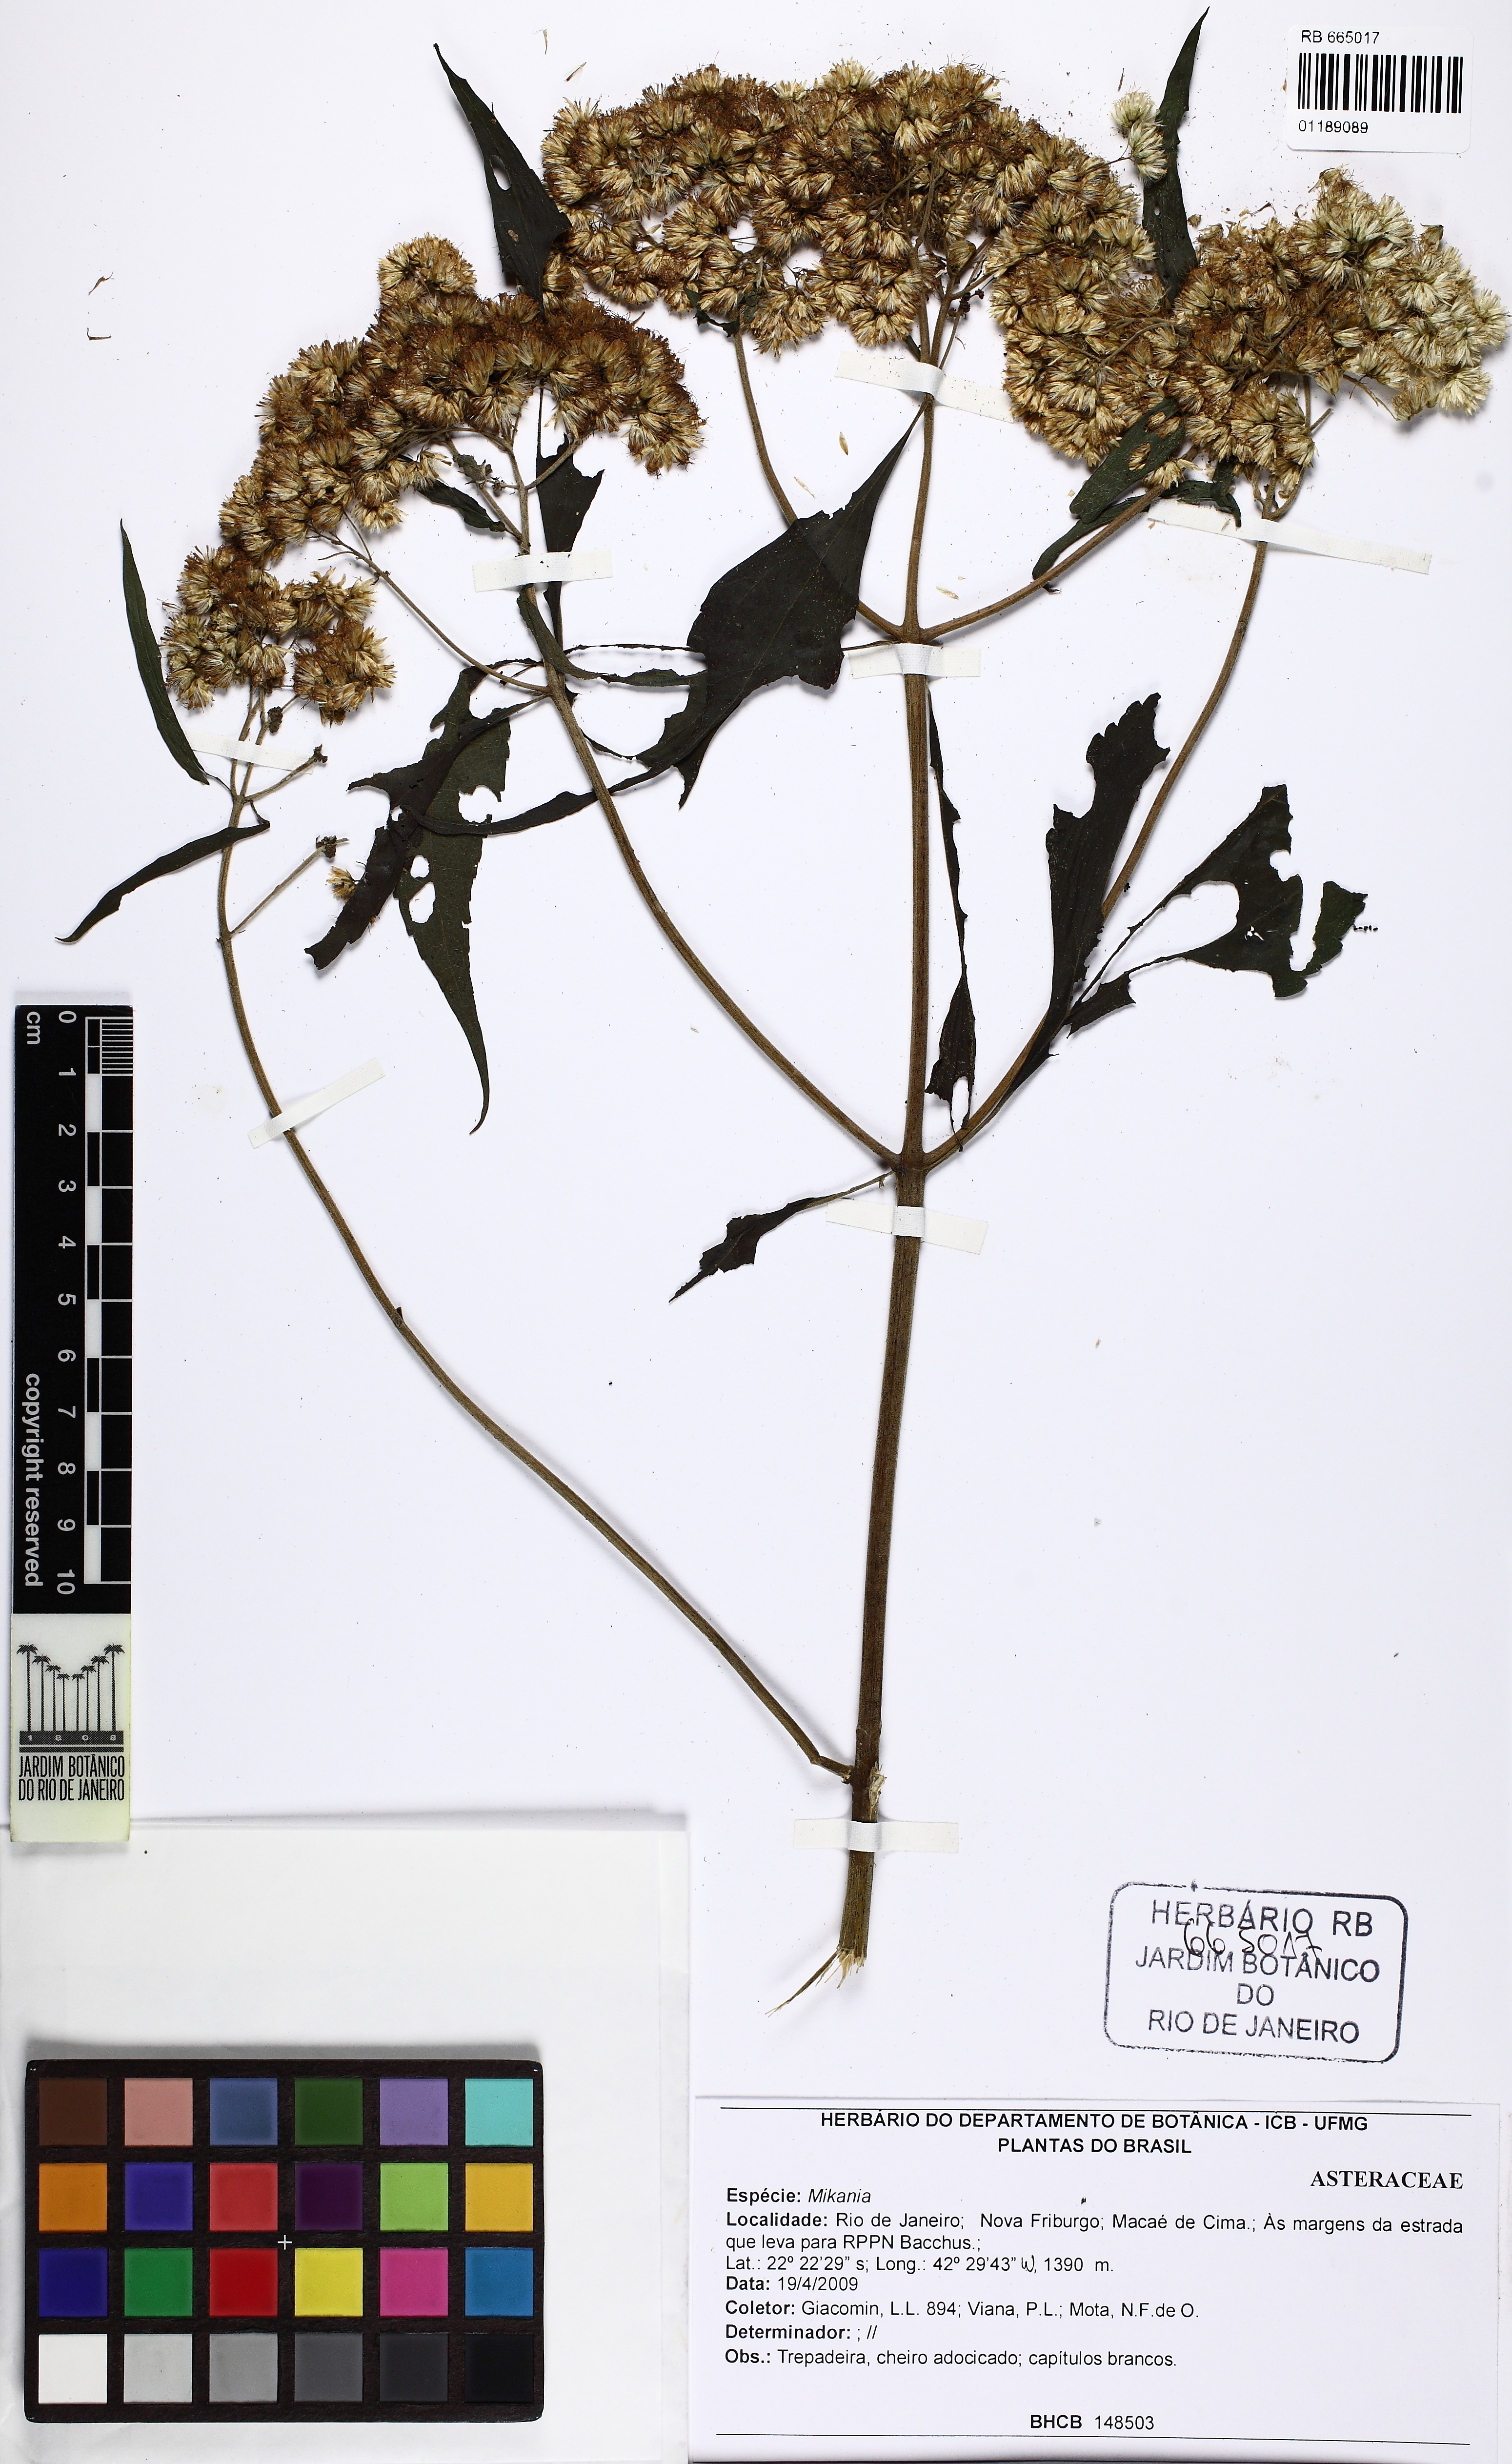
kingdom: Plantae
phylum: Tracheophyta
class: Magnoliopsida
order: Asterales
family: Asteraceae
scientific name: Asteraceae
